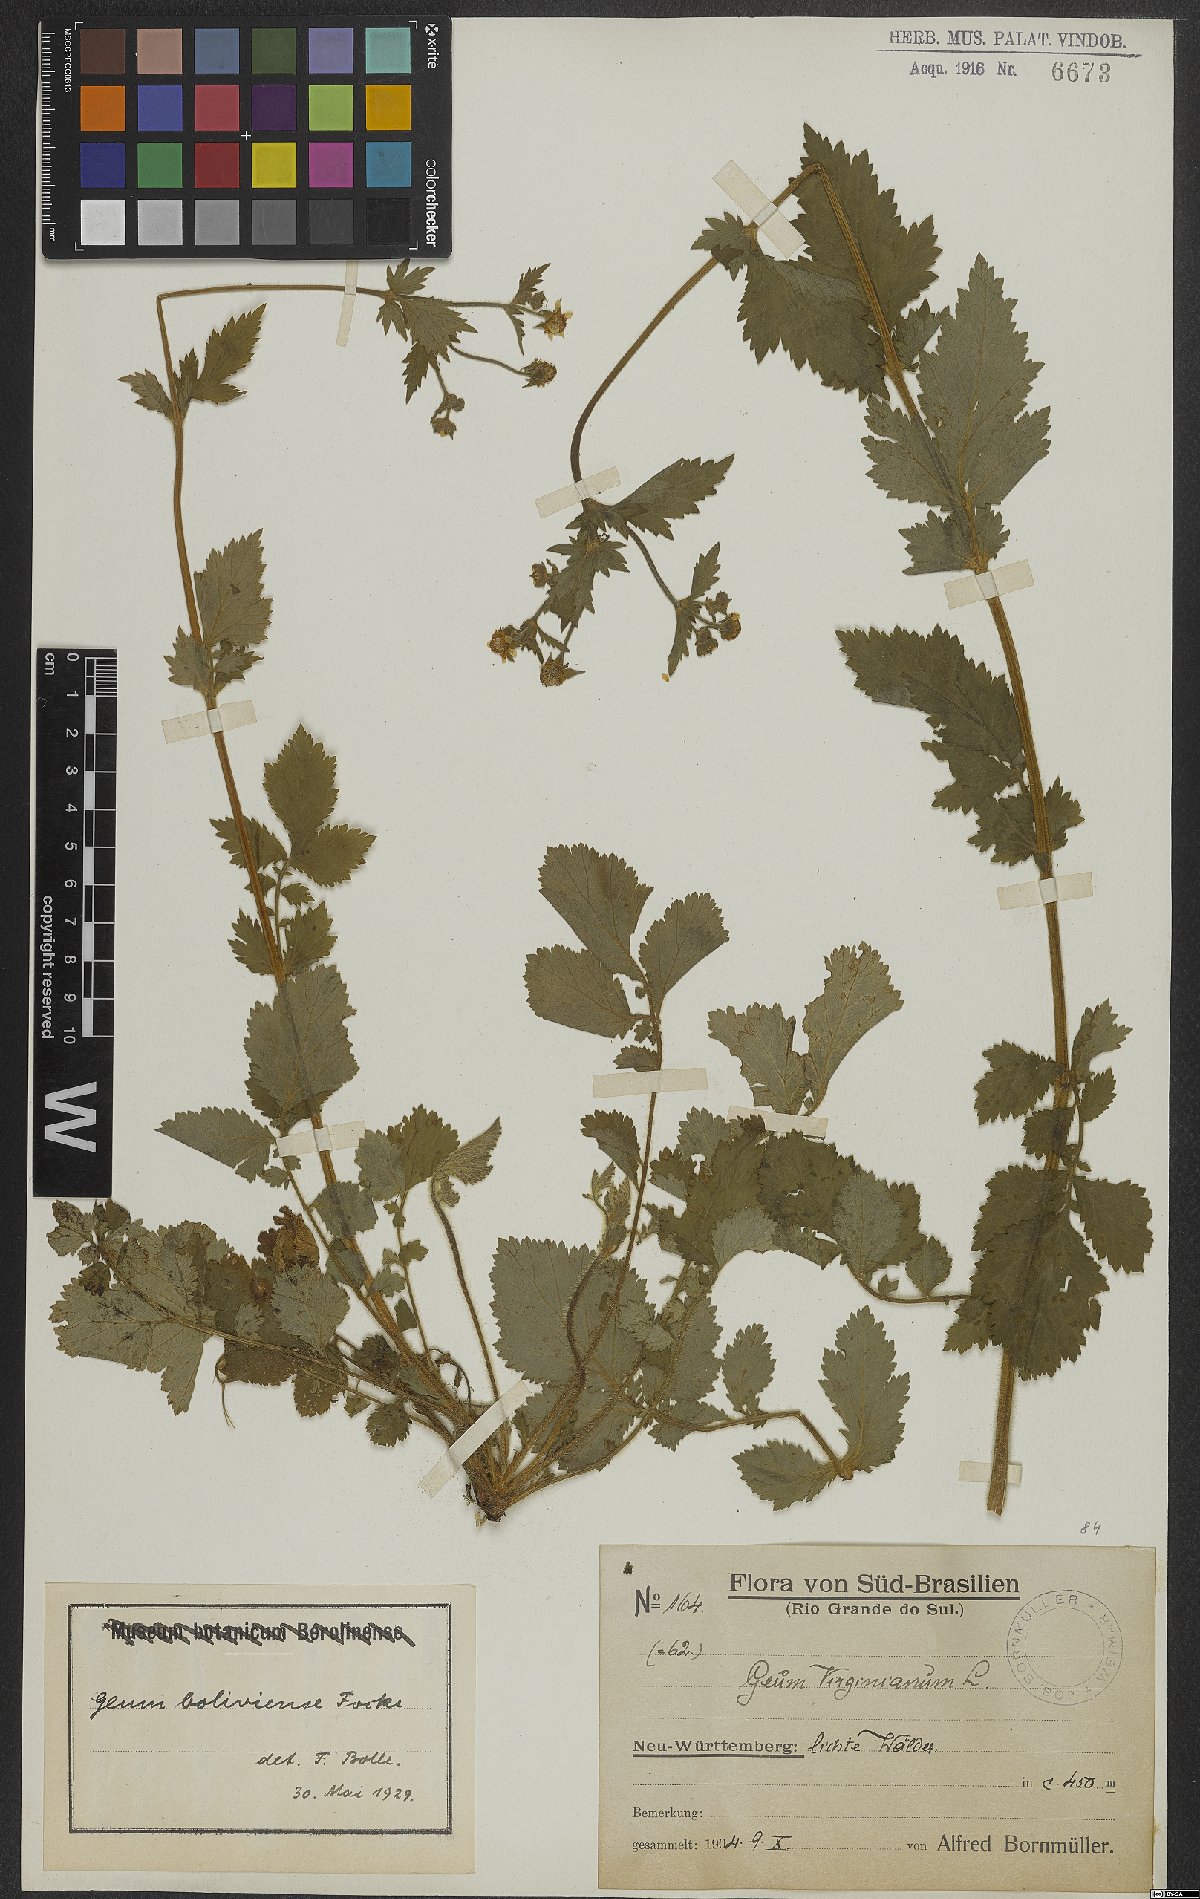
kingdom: Plantae
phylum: Tracheophyta
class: Magnoliopsida
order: Rosales
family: Rosaceae
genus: Geum
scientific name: Geum boliviense
